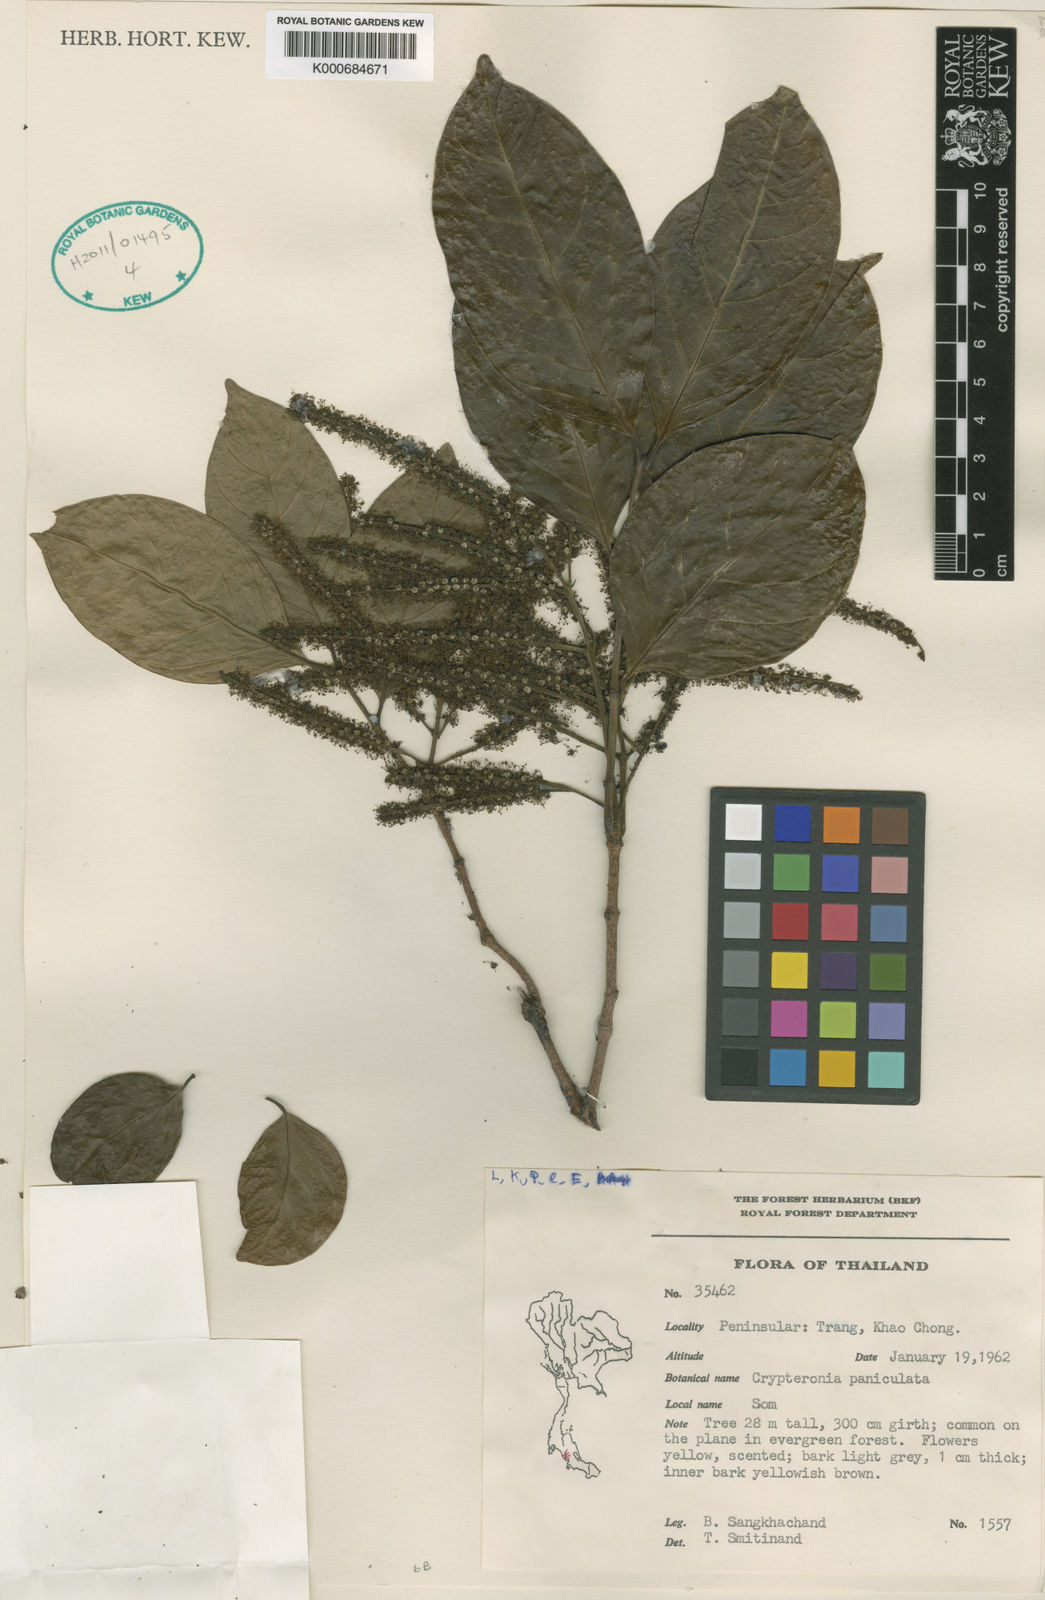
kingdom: Plantae
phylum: Tracheophyta
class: Magnoliopsida
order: Myrtales
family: Crypteroniaceae
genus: Crypteronia
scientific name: Crypteronia paniculata
